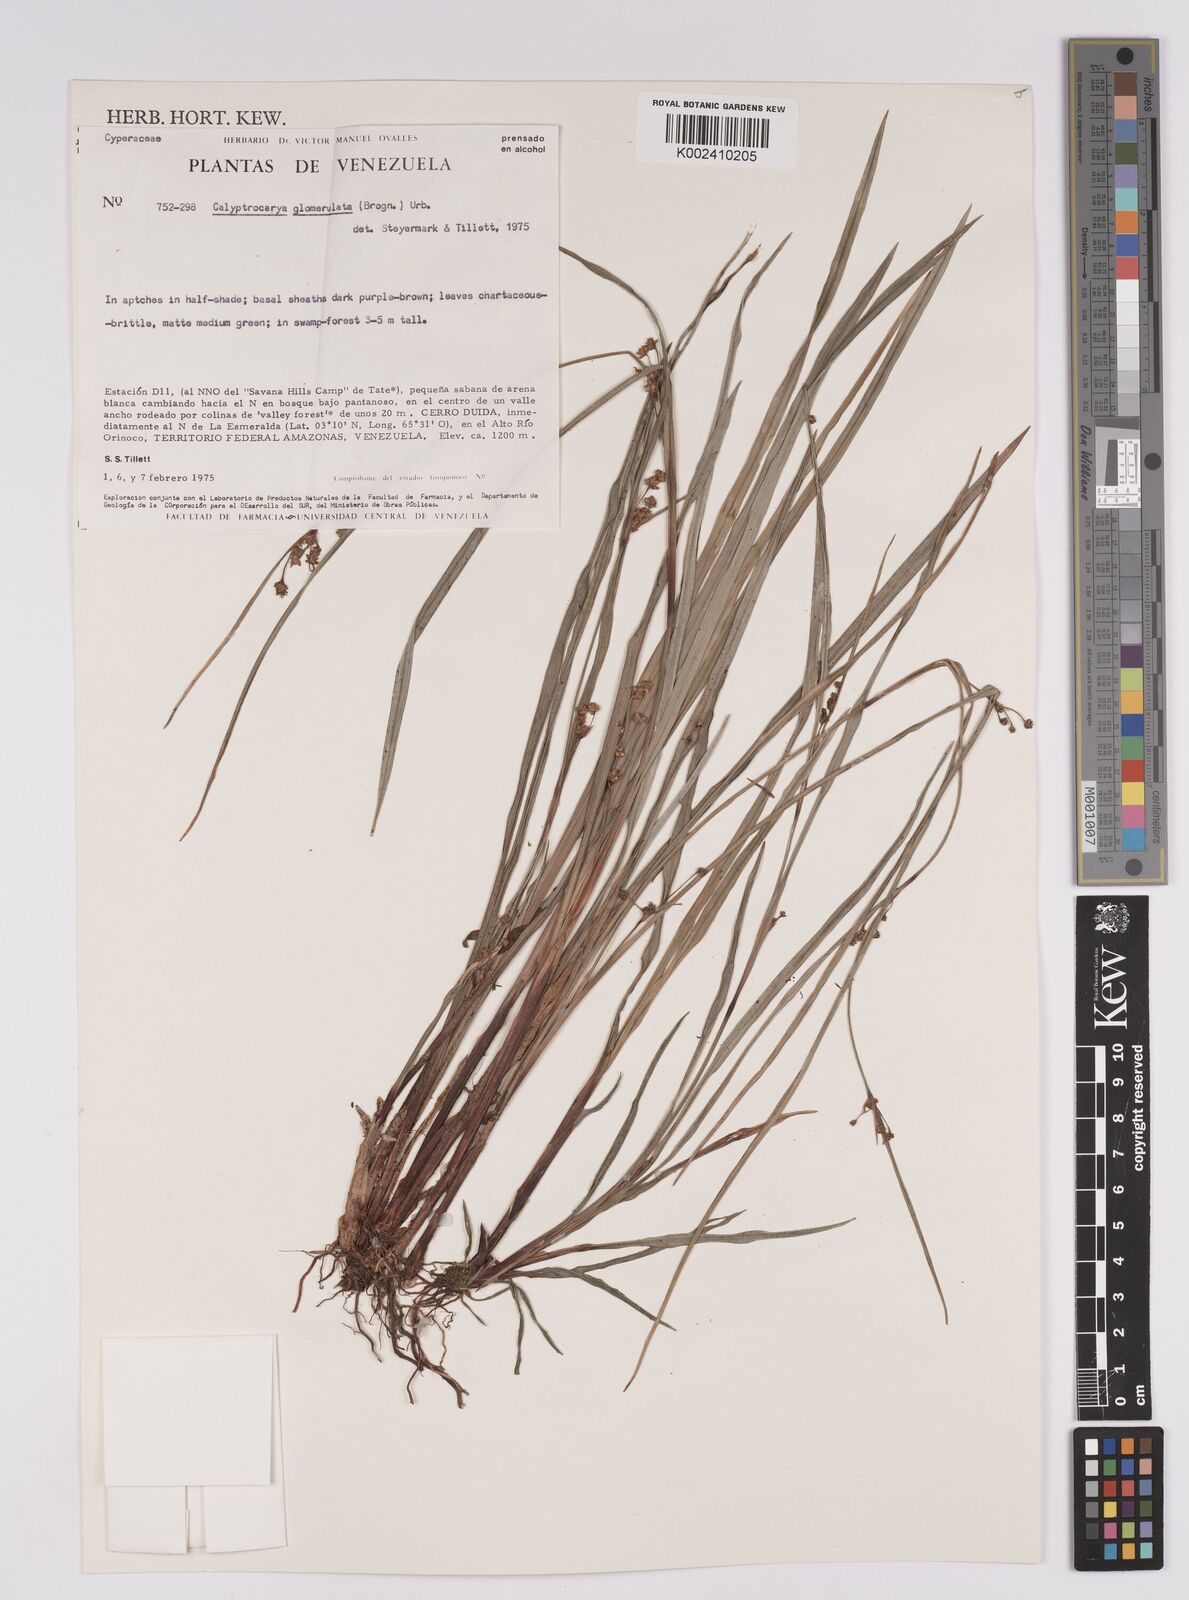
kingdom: Plantae
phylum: Tracheophyta
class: Liliopsida
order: Poales
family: Cyperaceae
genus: Calyptrocarya
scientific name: Calyptrocarya glomerulata
